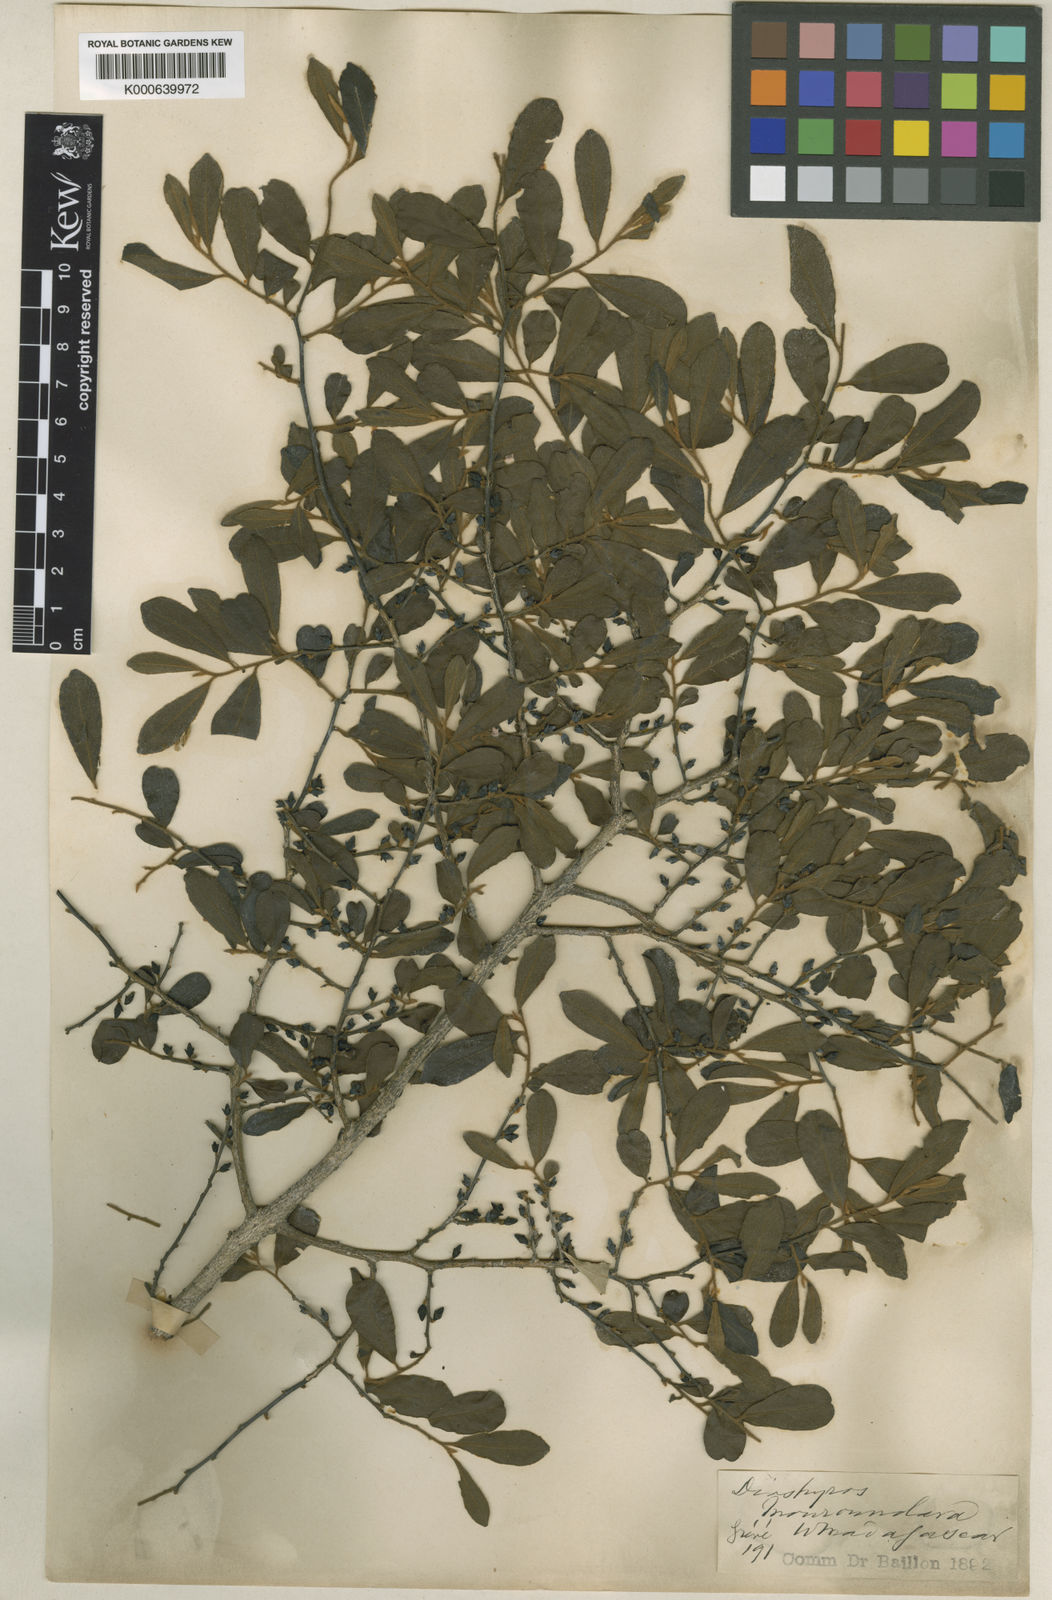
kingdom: Plantae
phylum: Tracheophyta
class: Magnoliopsida
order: Ericales
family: Ebenaceae
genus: Diospyros
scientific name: Diospyros tropophylla
